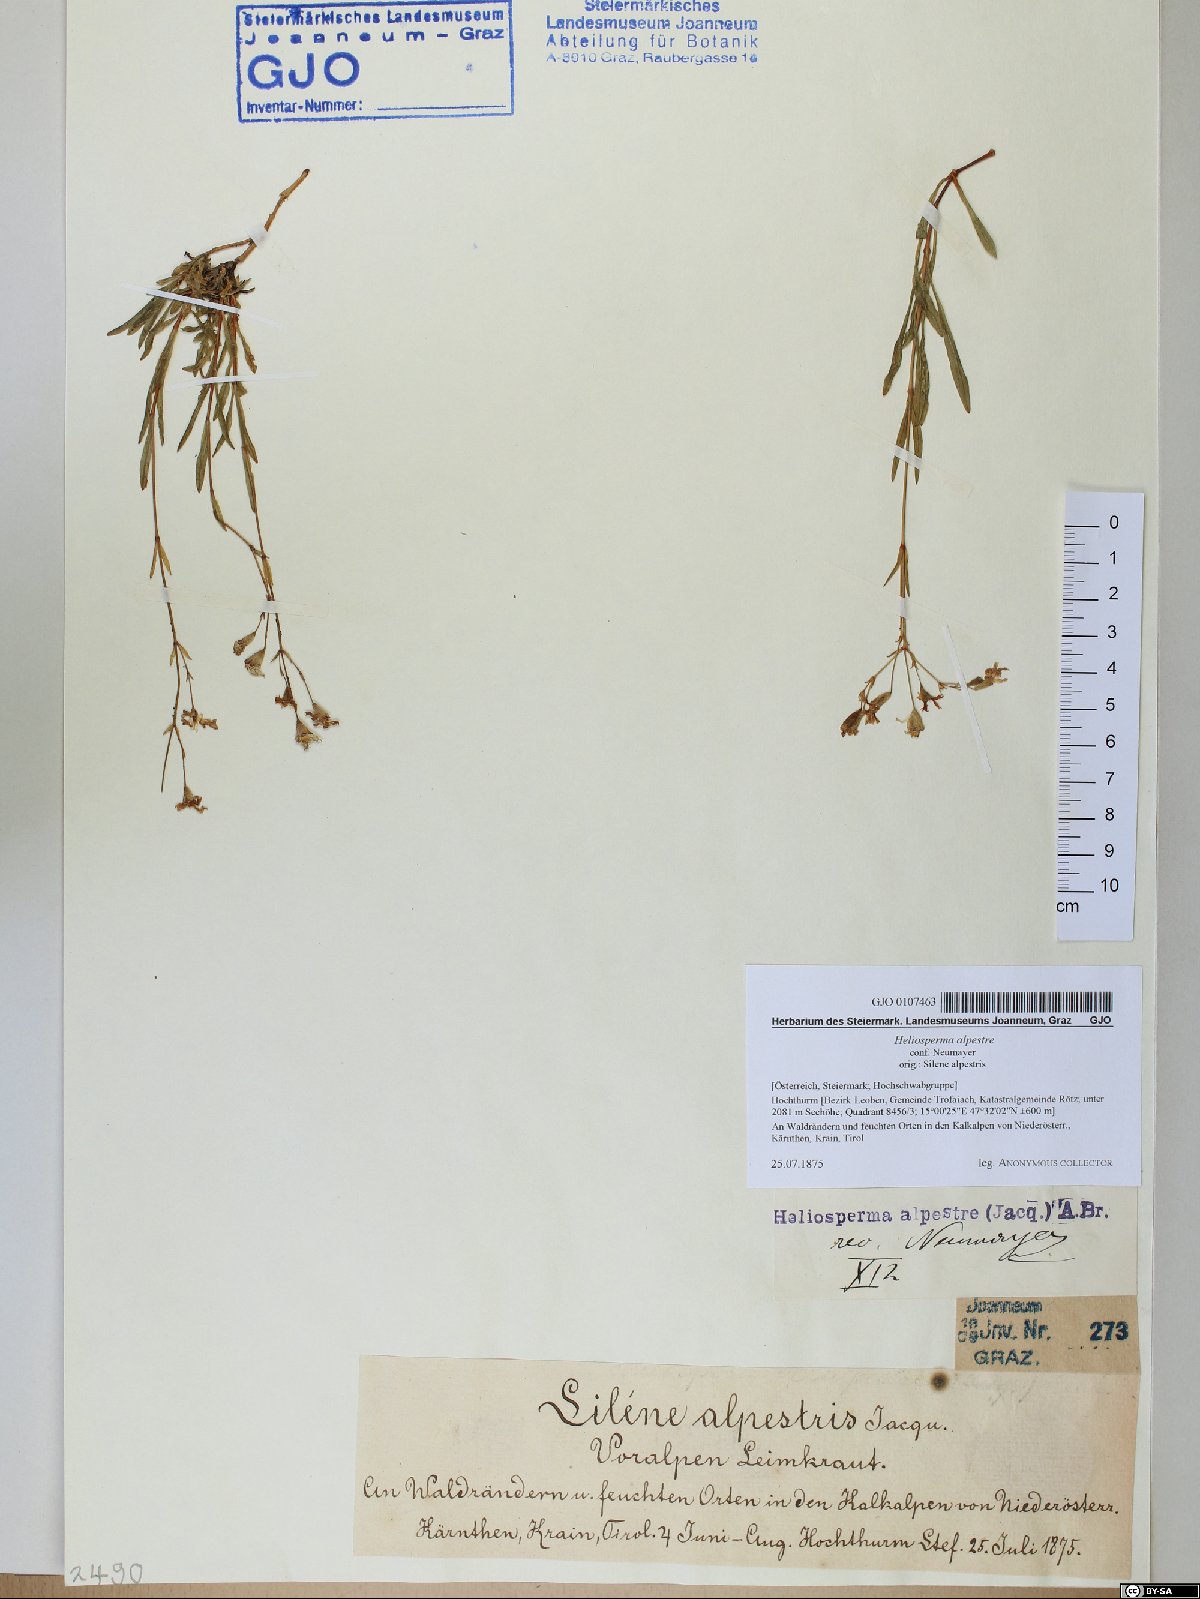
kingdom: Plantae
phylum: Tracheophyta
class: Magnoliopsida
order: Caryophyllales
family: Caryophyllaceae
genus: Heliosperma
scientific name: Heliosperma alpestre
